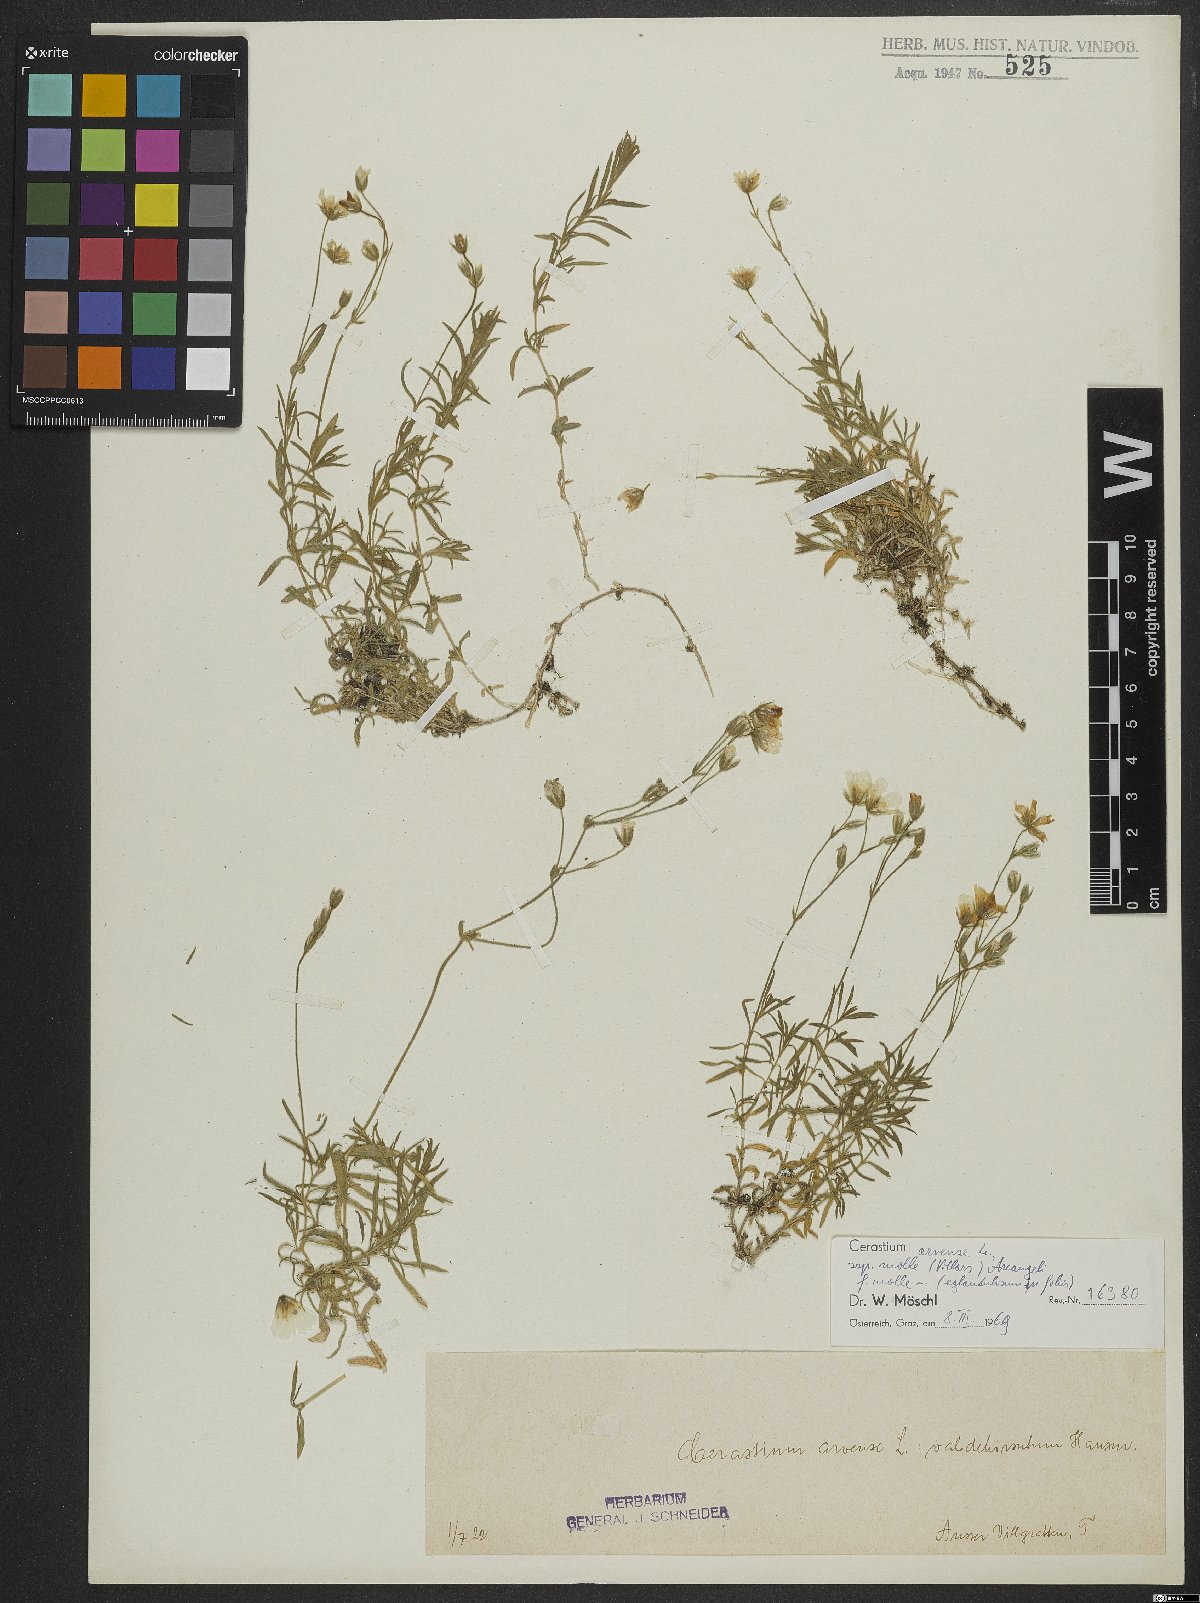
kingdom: Plantae
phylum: Tracheophyta
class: Magnoliopsida
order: Caryophyllales
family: Caryophyllaceae
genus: Cerastium
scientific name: Cerastium arvense
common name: Field mouse-ear
